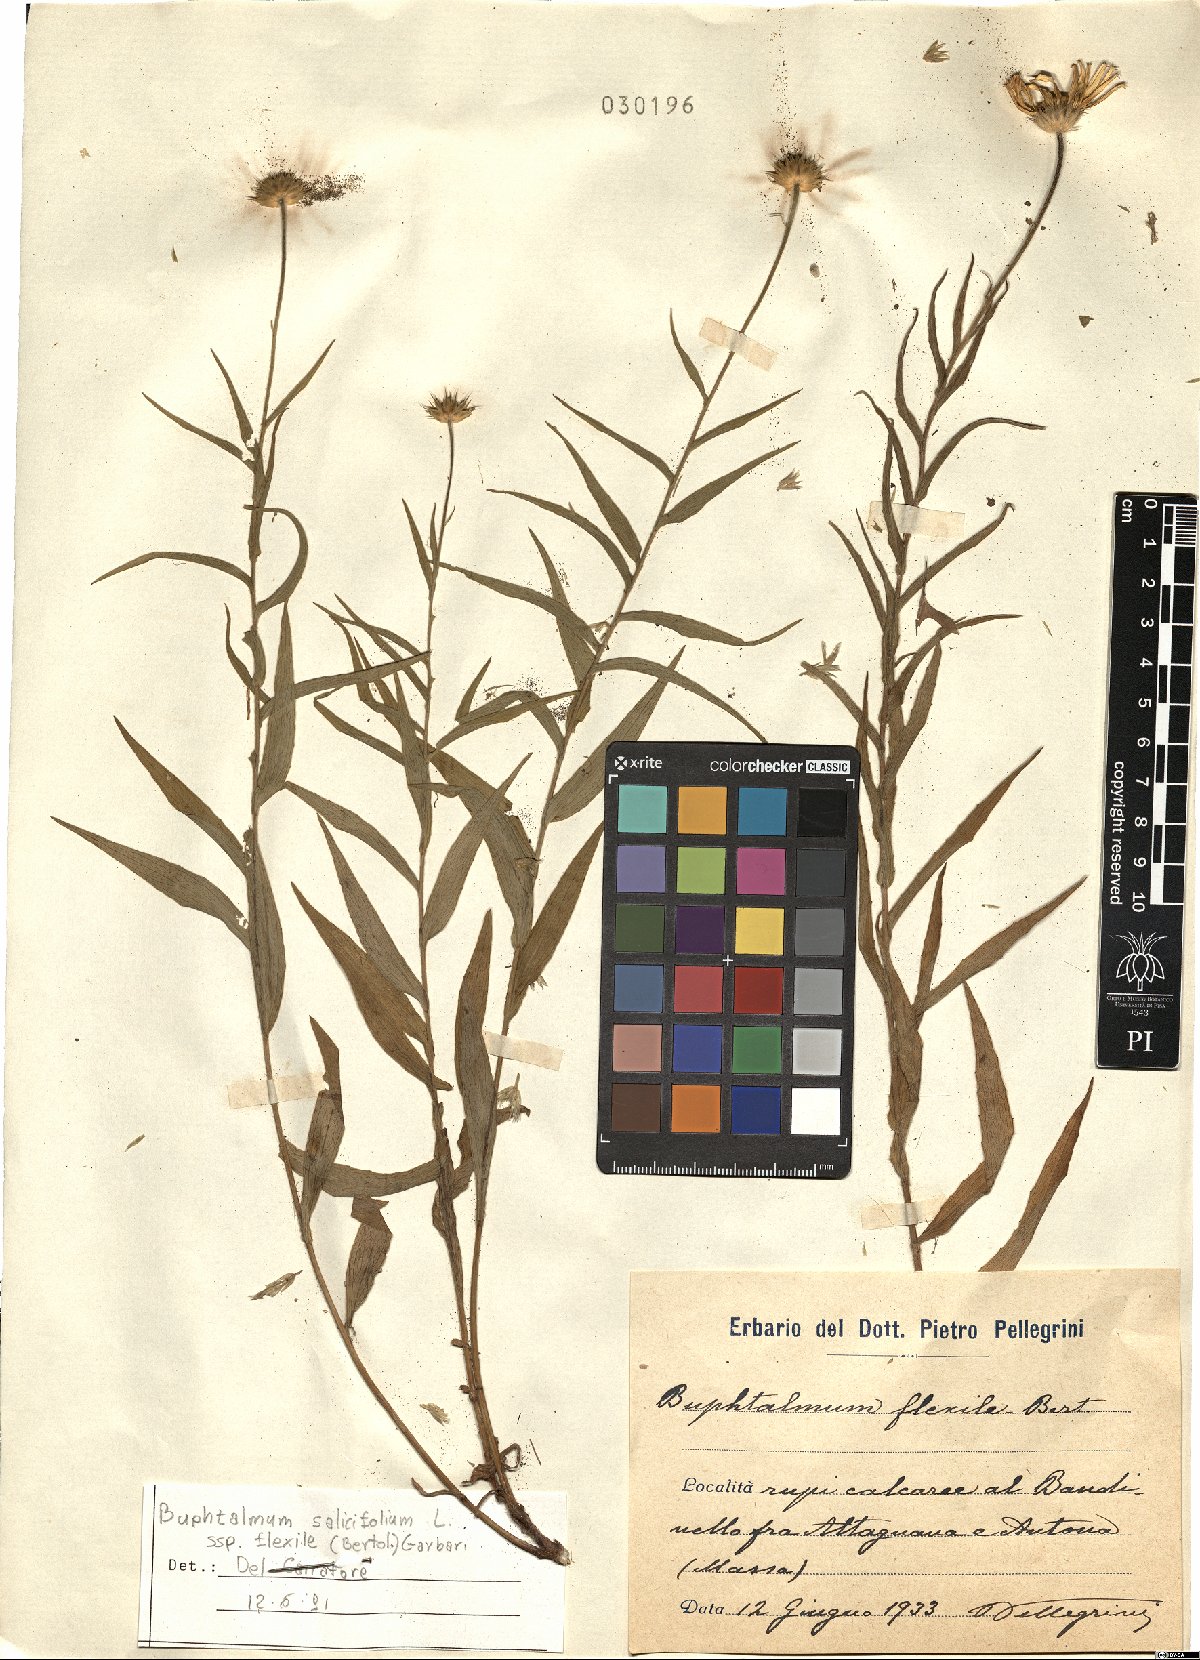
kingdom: Plantae
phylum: Tracheophyta
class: Magnoliopsida
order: Asterales
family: Asteraceae
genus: Buphthalmum
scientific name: Buphthalmum salicifolium
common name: Willow-leaved yellow-oxeye
